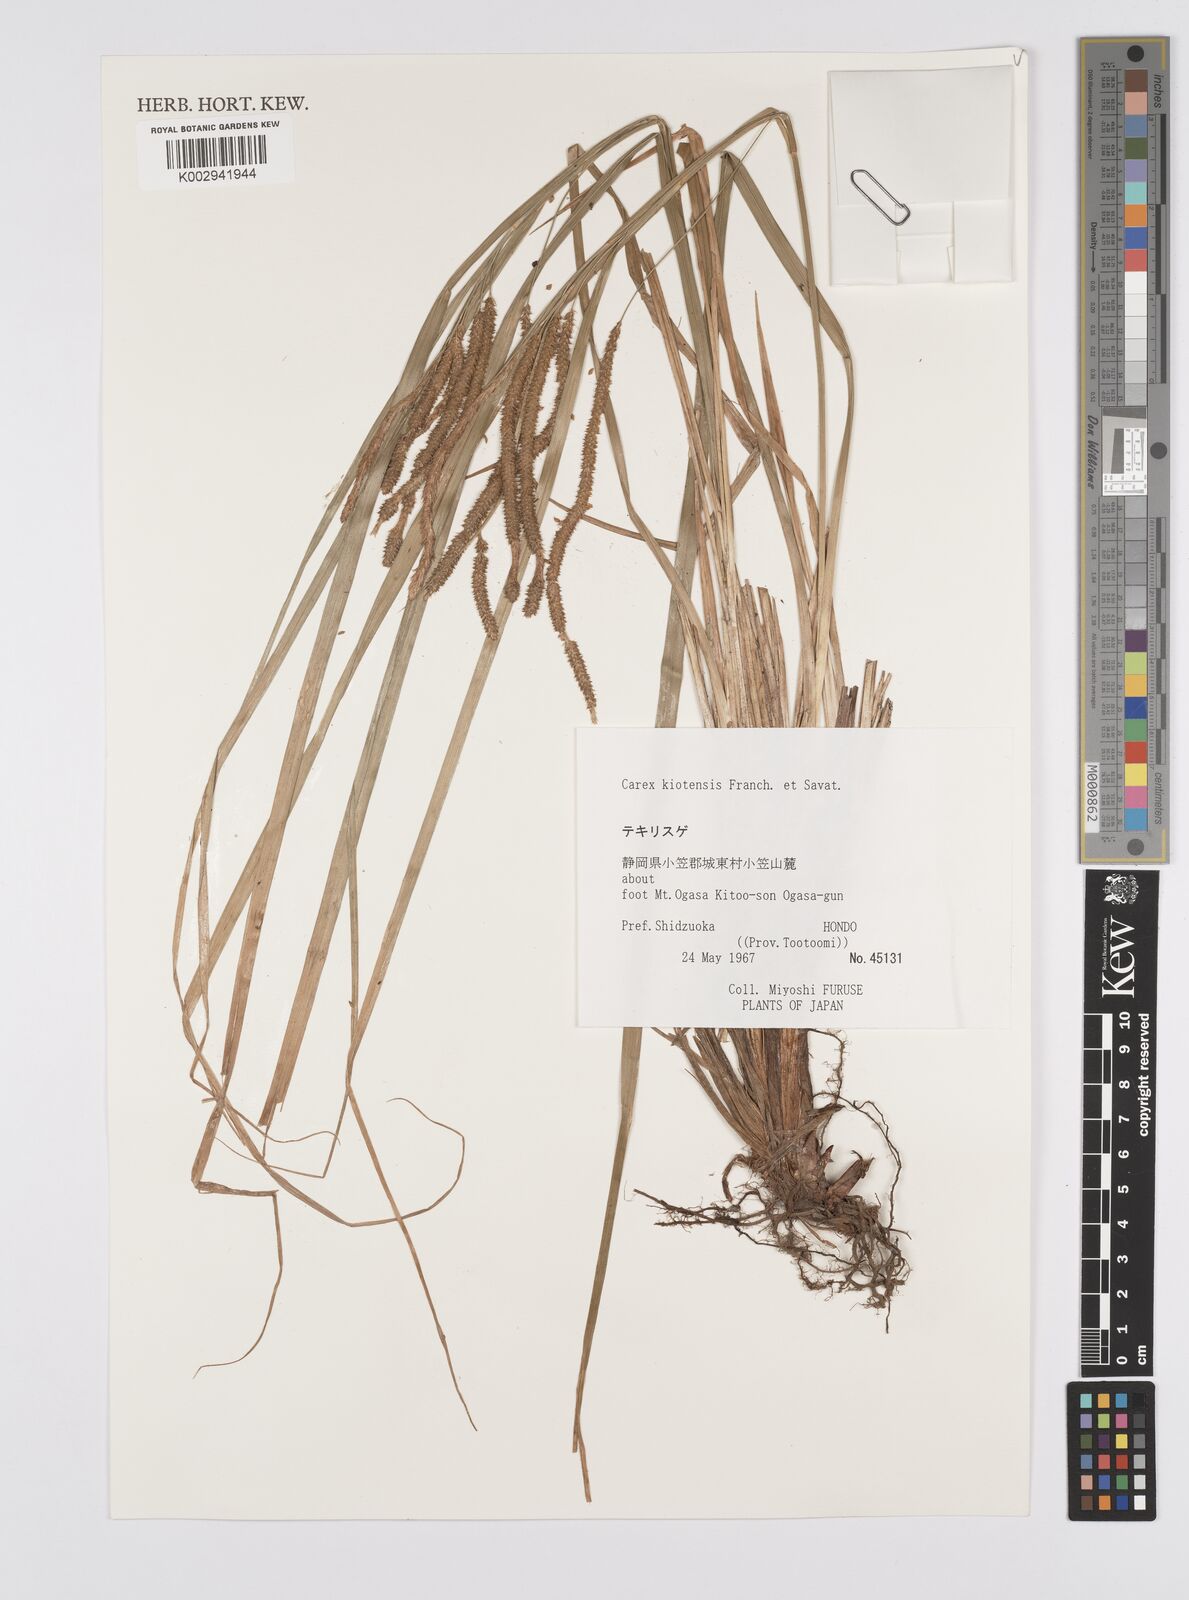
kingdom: Plantae
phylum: Tracheophyta
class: Liliopsida
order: Poales
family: Cyperaceae
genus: Carex
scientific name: Carex nemostachys
